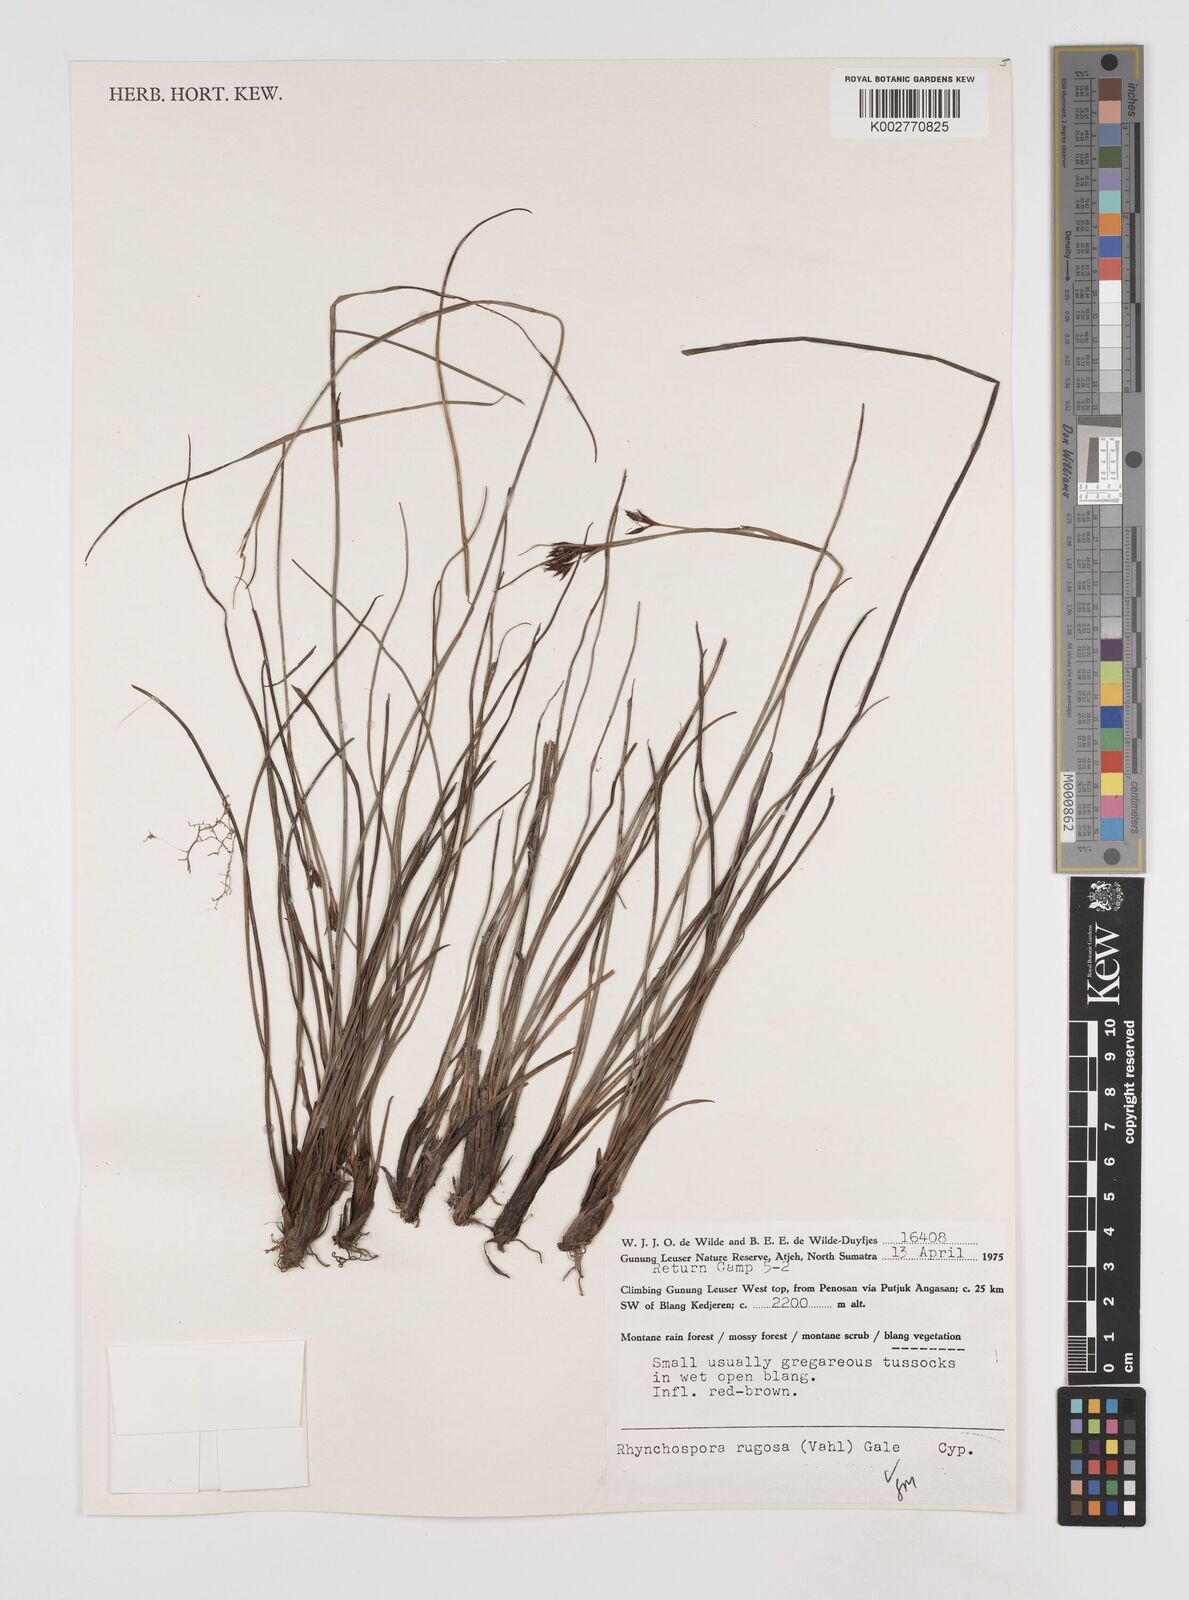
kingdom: Plantae
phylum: Tracheophyta
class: Liliopsida
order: Poales
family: Cyperaceae
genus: Rhynchospora
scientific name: Rhynchospora rugosa
